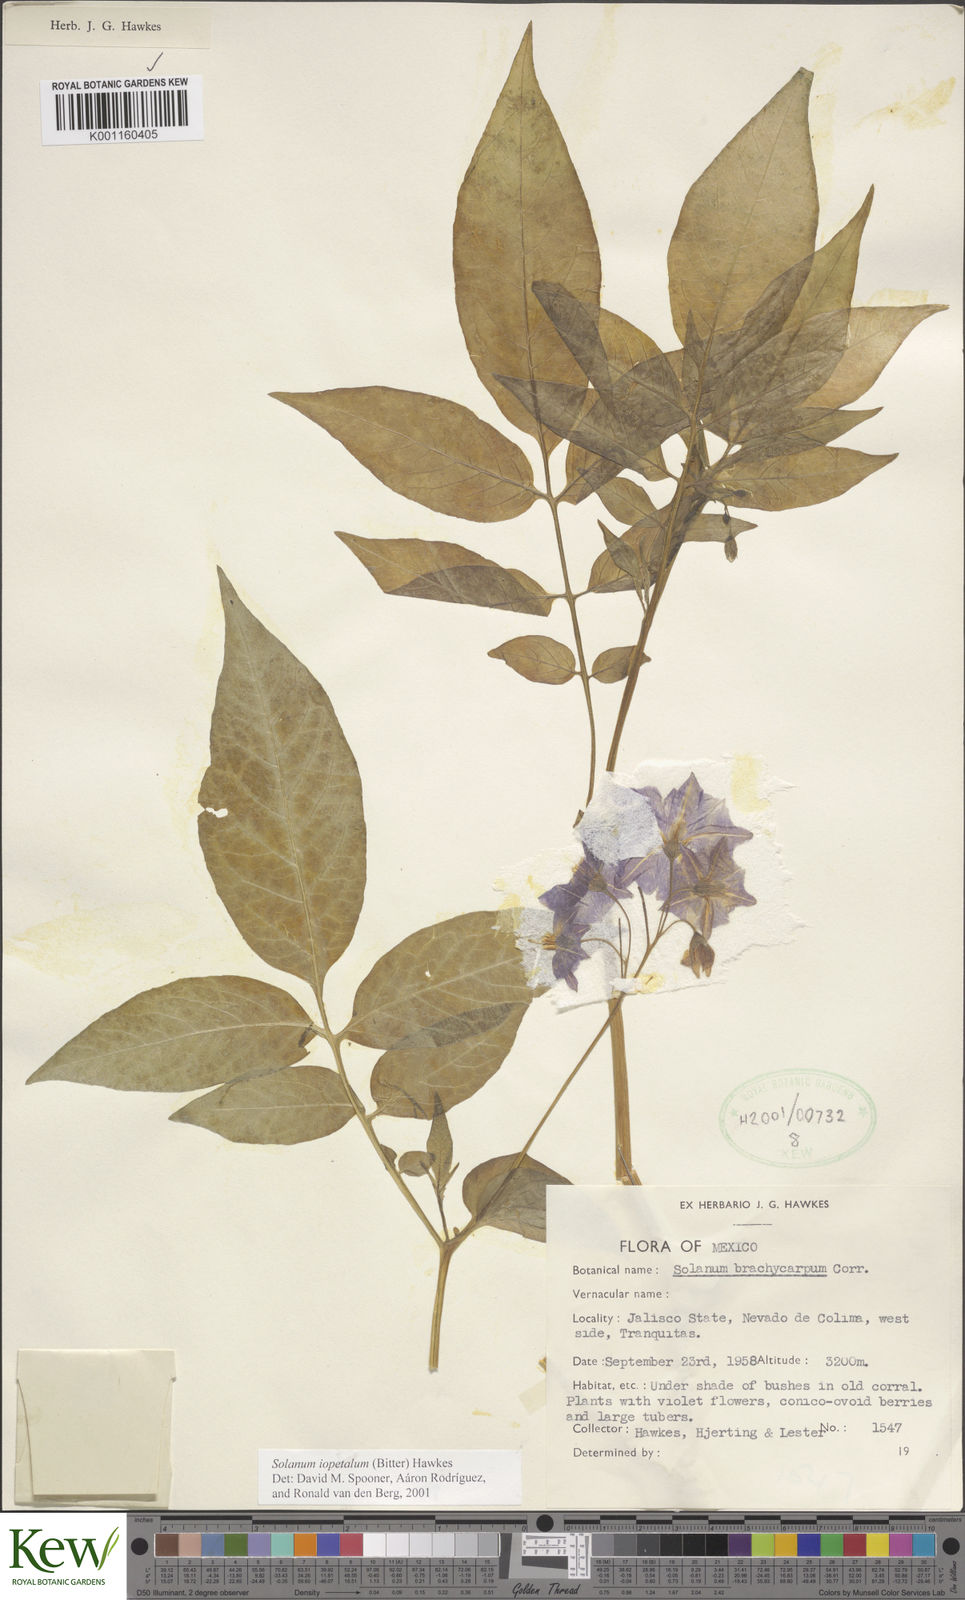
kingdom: Plantae
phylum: Tracheophyta
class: Magnoliopsida
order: Solanales
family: Solanaceae
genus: Solanum
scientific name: Solanum iopetalum
